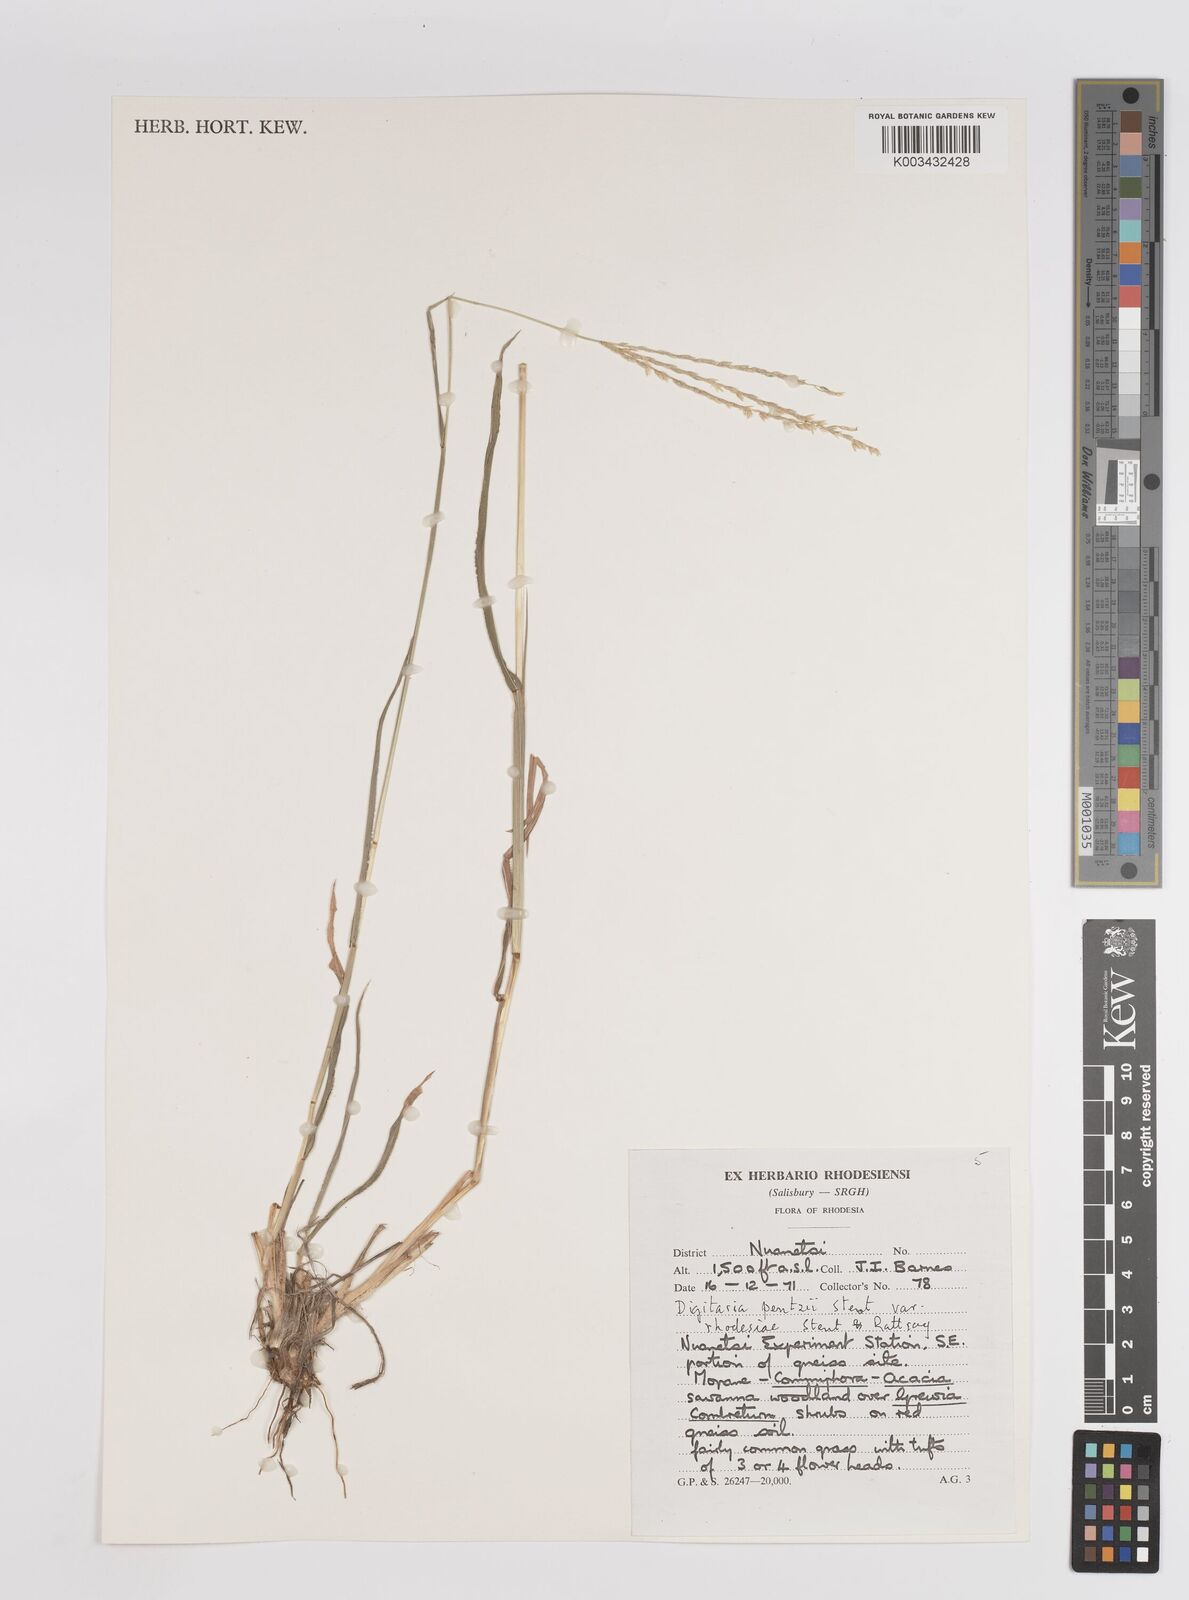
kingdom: Plantae
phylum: Tracheophyta
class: Liliopsida
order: Poales
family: Poaceae
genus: Digitaria
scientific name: Digitaria eriantha
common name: Digitgrass
